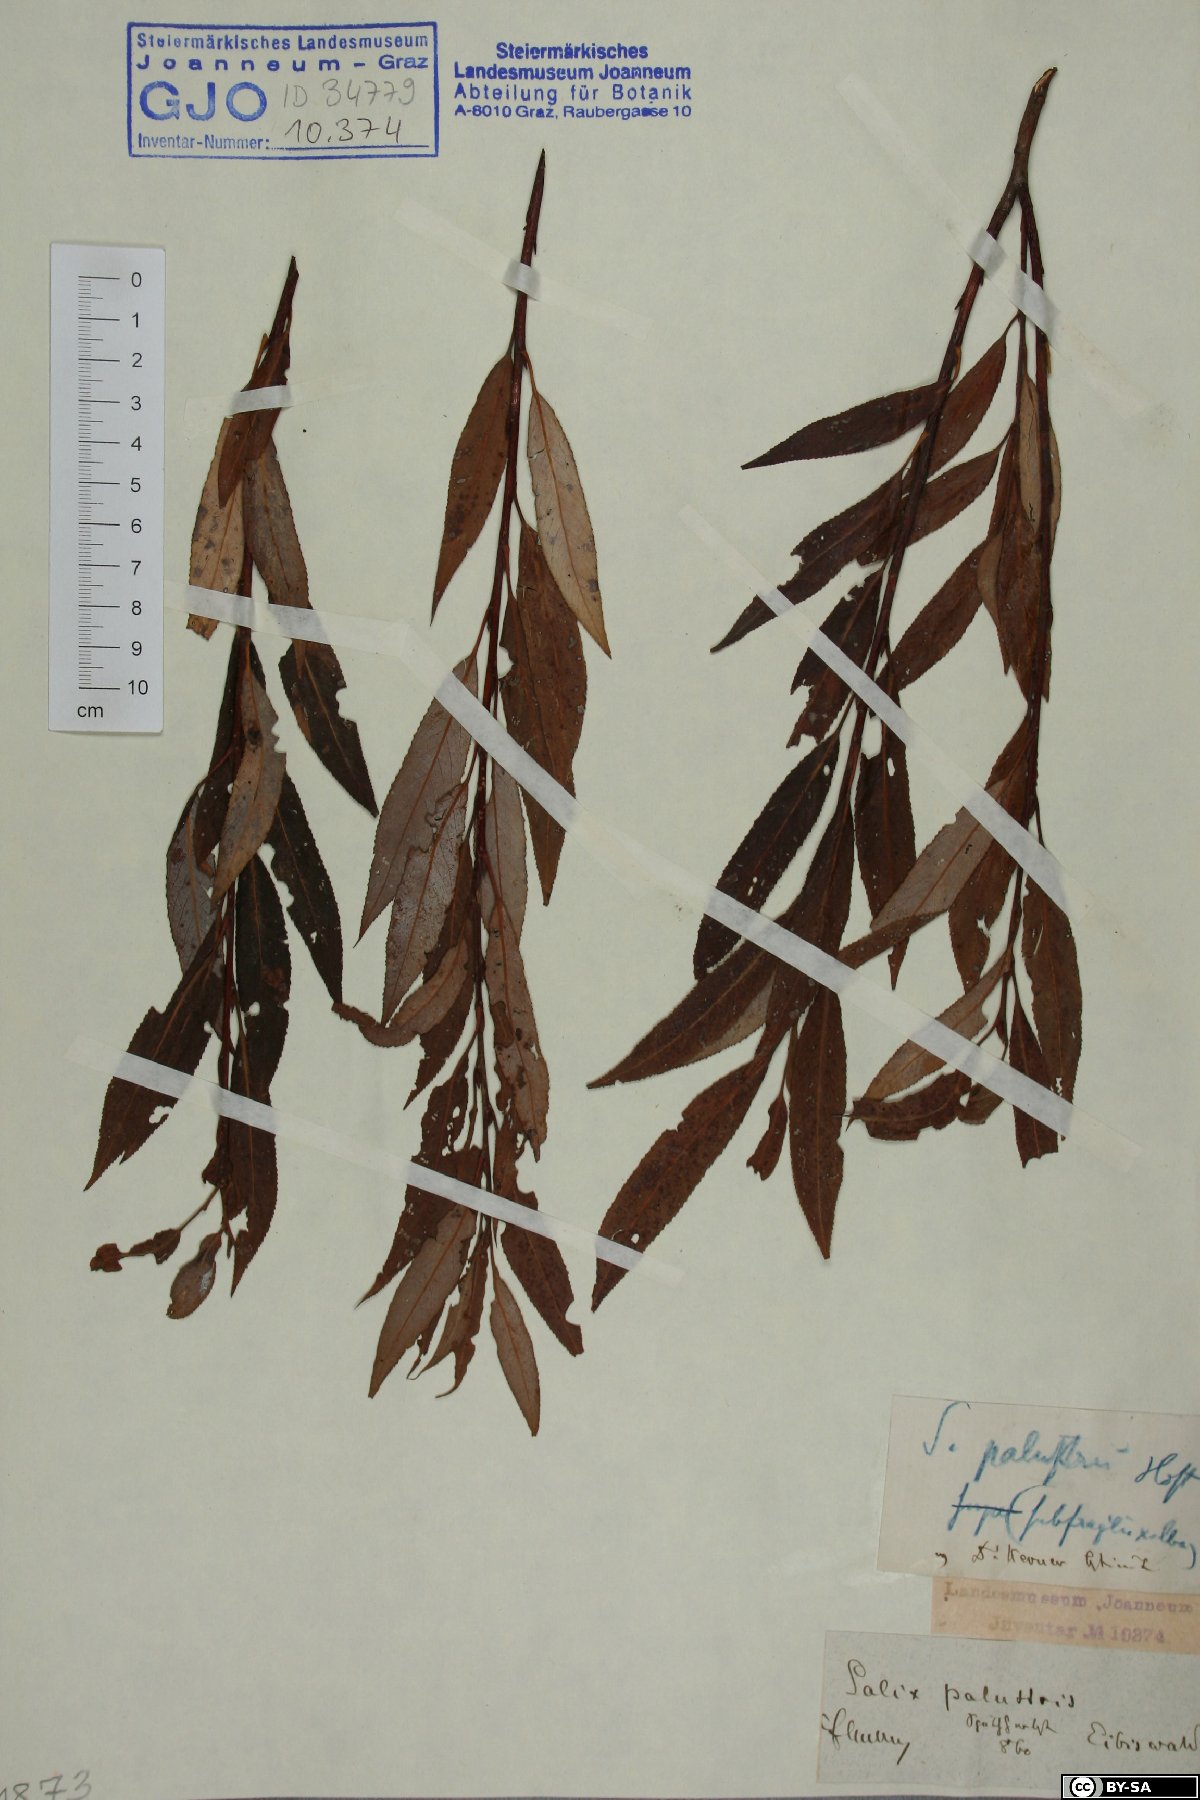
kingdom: Plantae
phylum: Tracheophyta
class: Magnoliopsida
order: Malpighiales
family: Salicaceae
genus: Salix
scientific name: Salix rubens
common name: Hybrid crack willow
